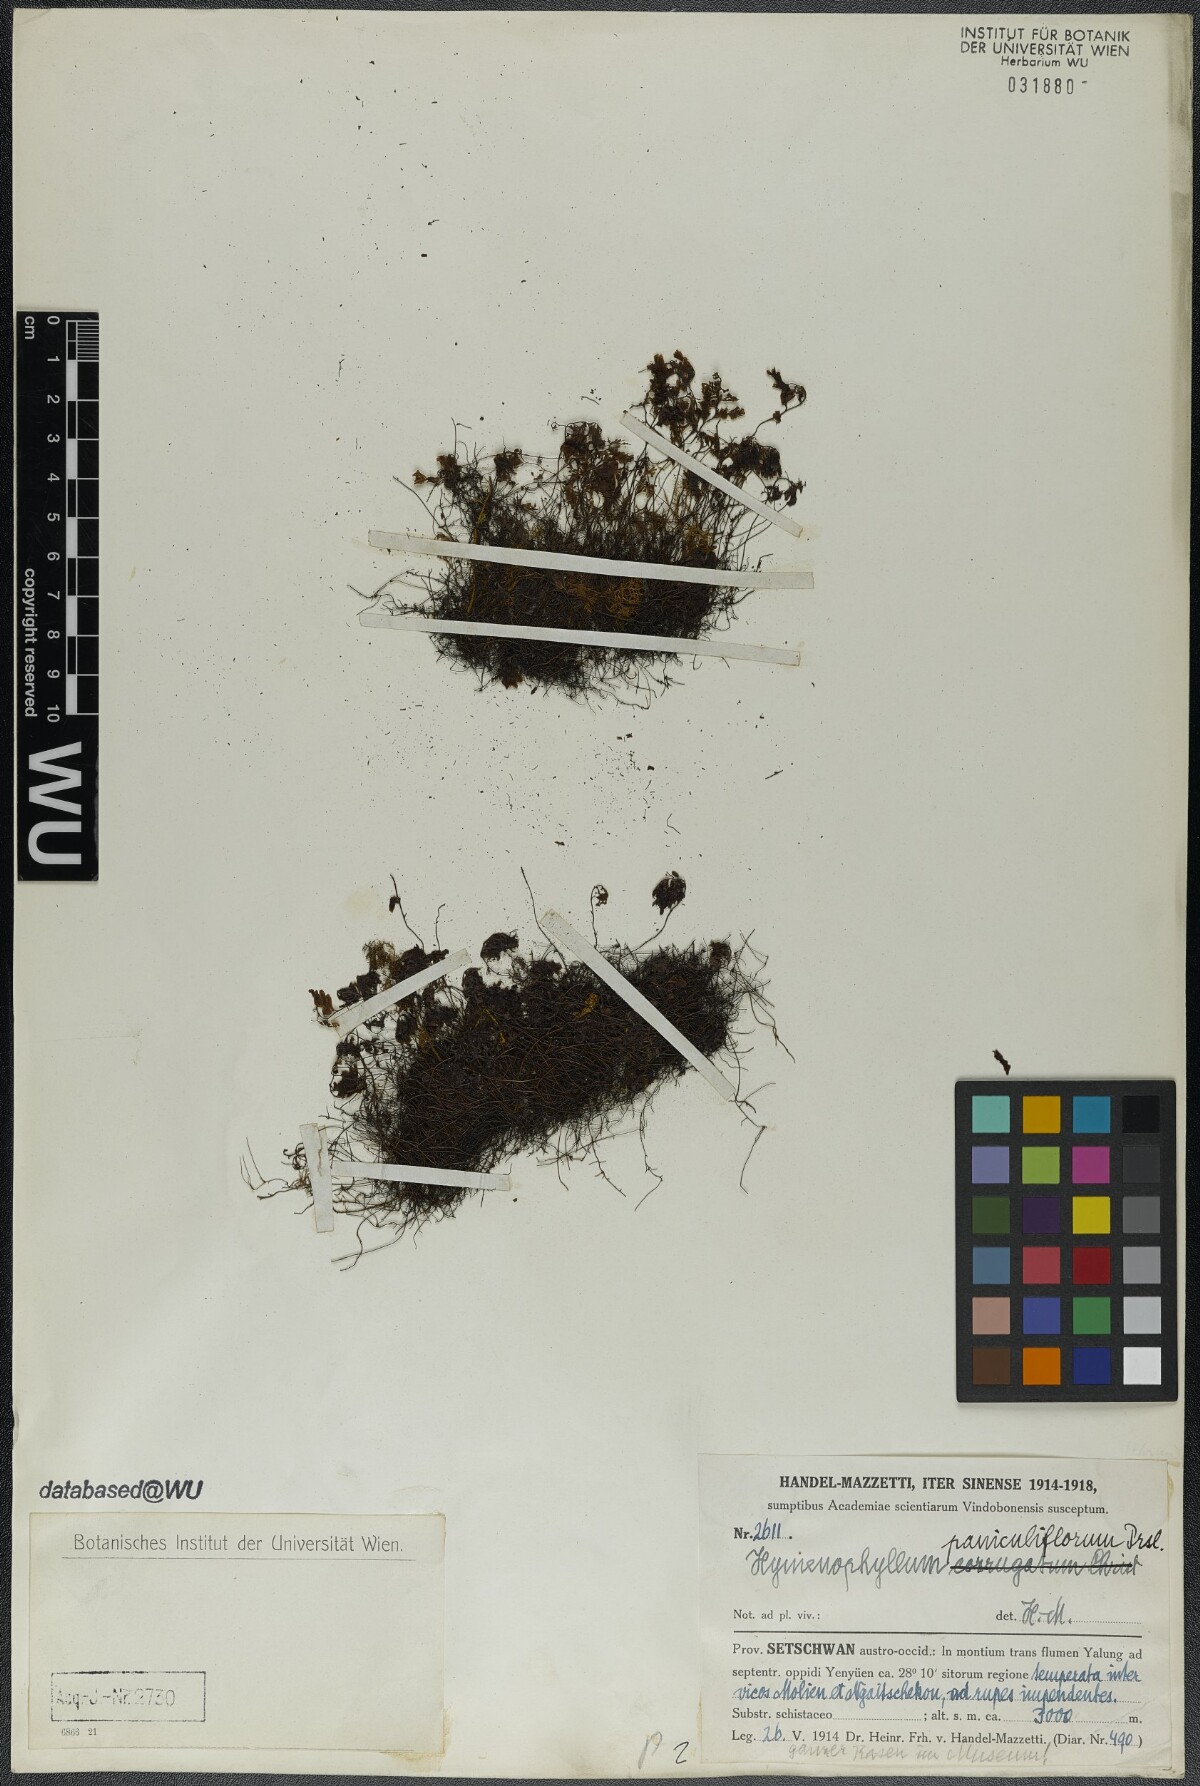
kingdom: Plantae
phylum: Tracheophyta
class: Polypodiopsida
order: Hymenophyllales
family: Hymenophyllaceae
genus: Hymenophyllum
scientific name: Hymenophyllum paniculiflorum
